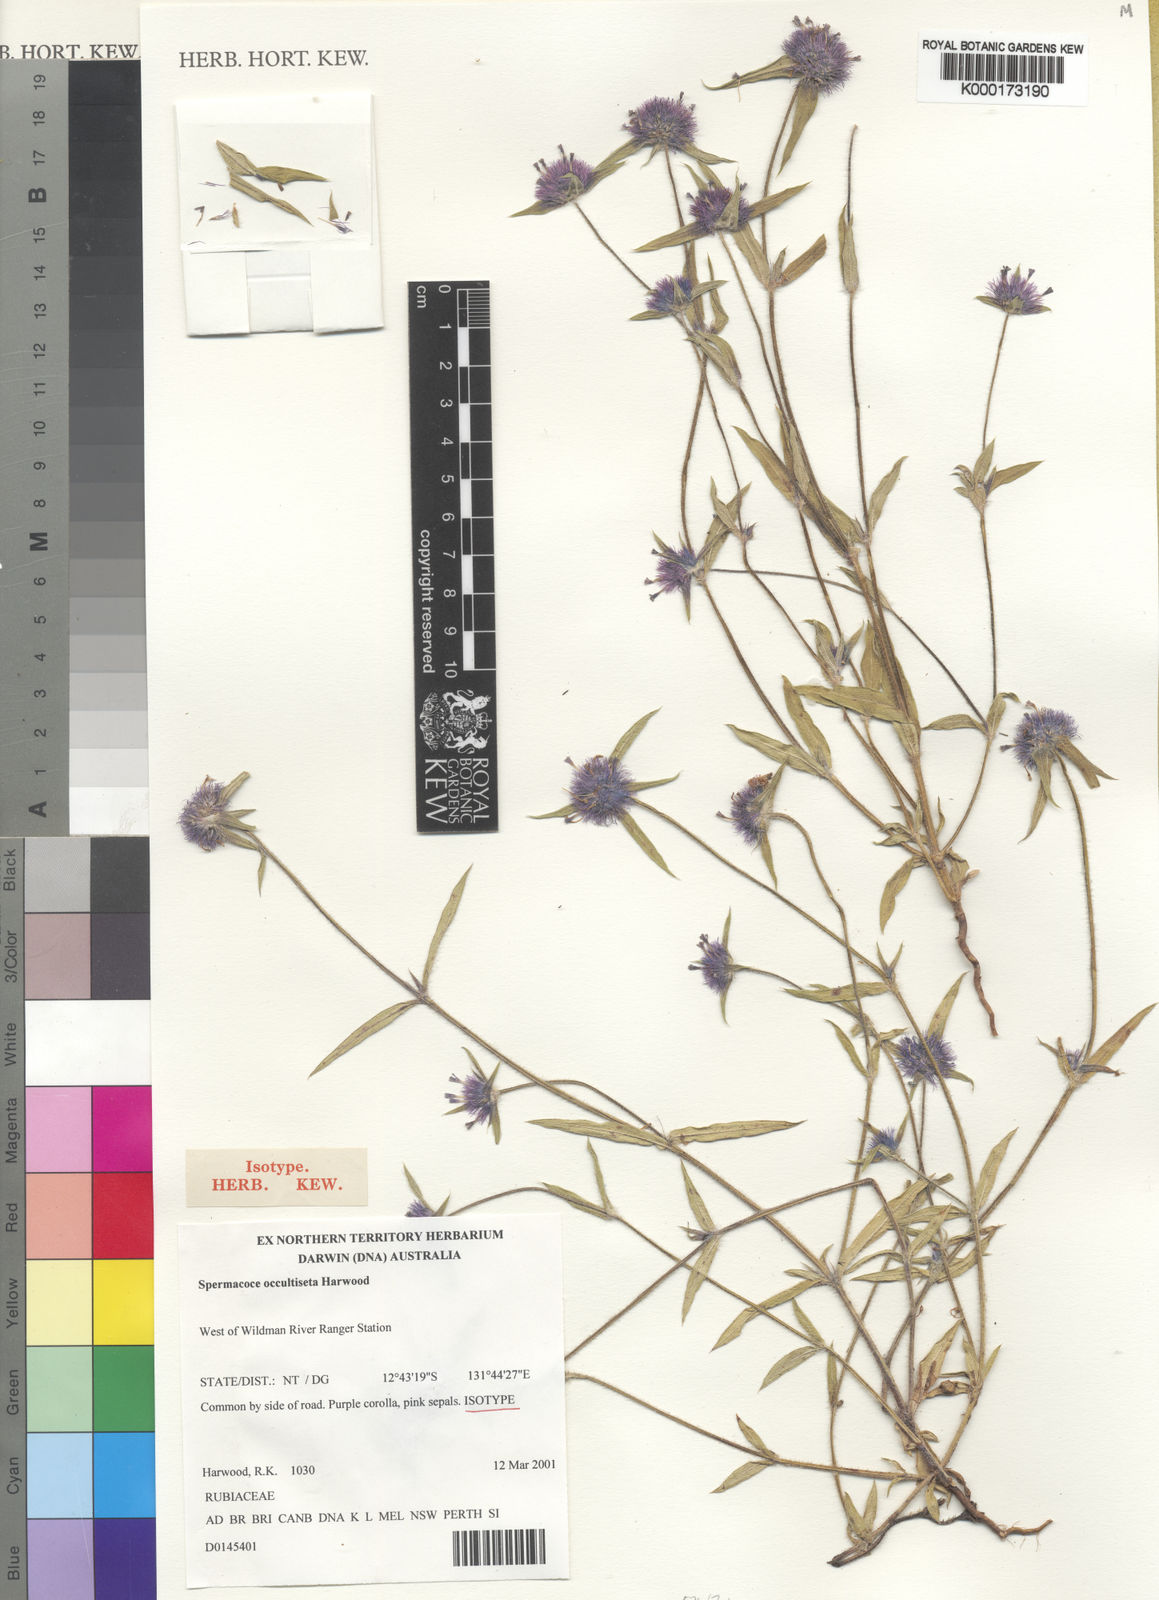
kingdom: Plantae
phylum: Tracheophyta
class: Magnoliopsida
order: Gentianales
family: Rubiaceae
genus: Spermacoce
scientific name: Spermacoce occultiseta
